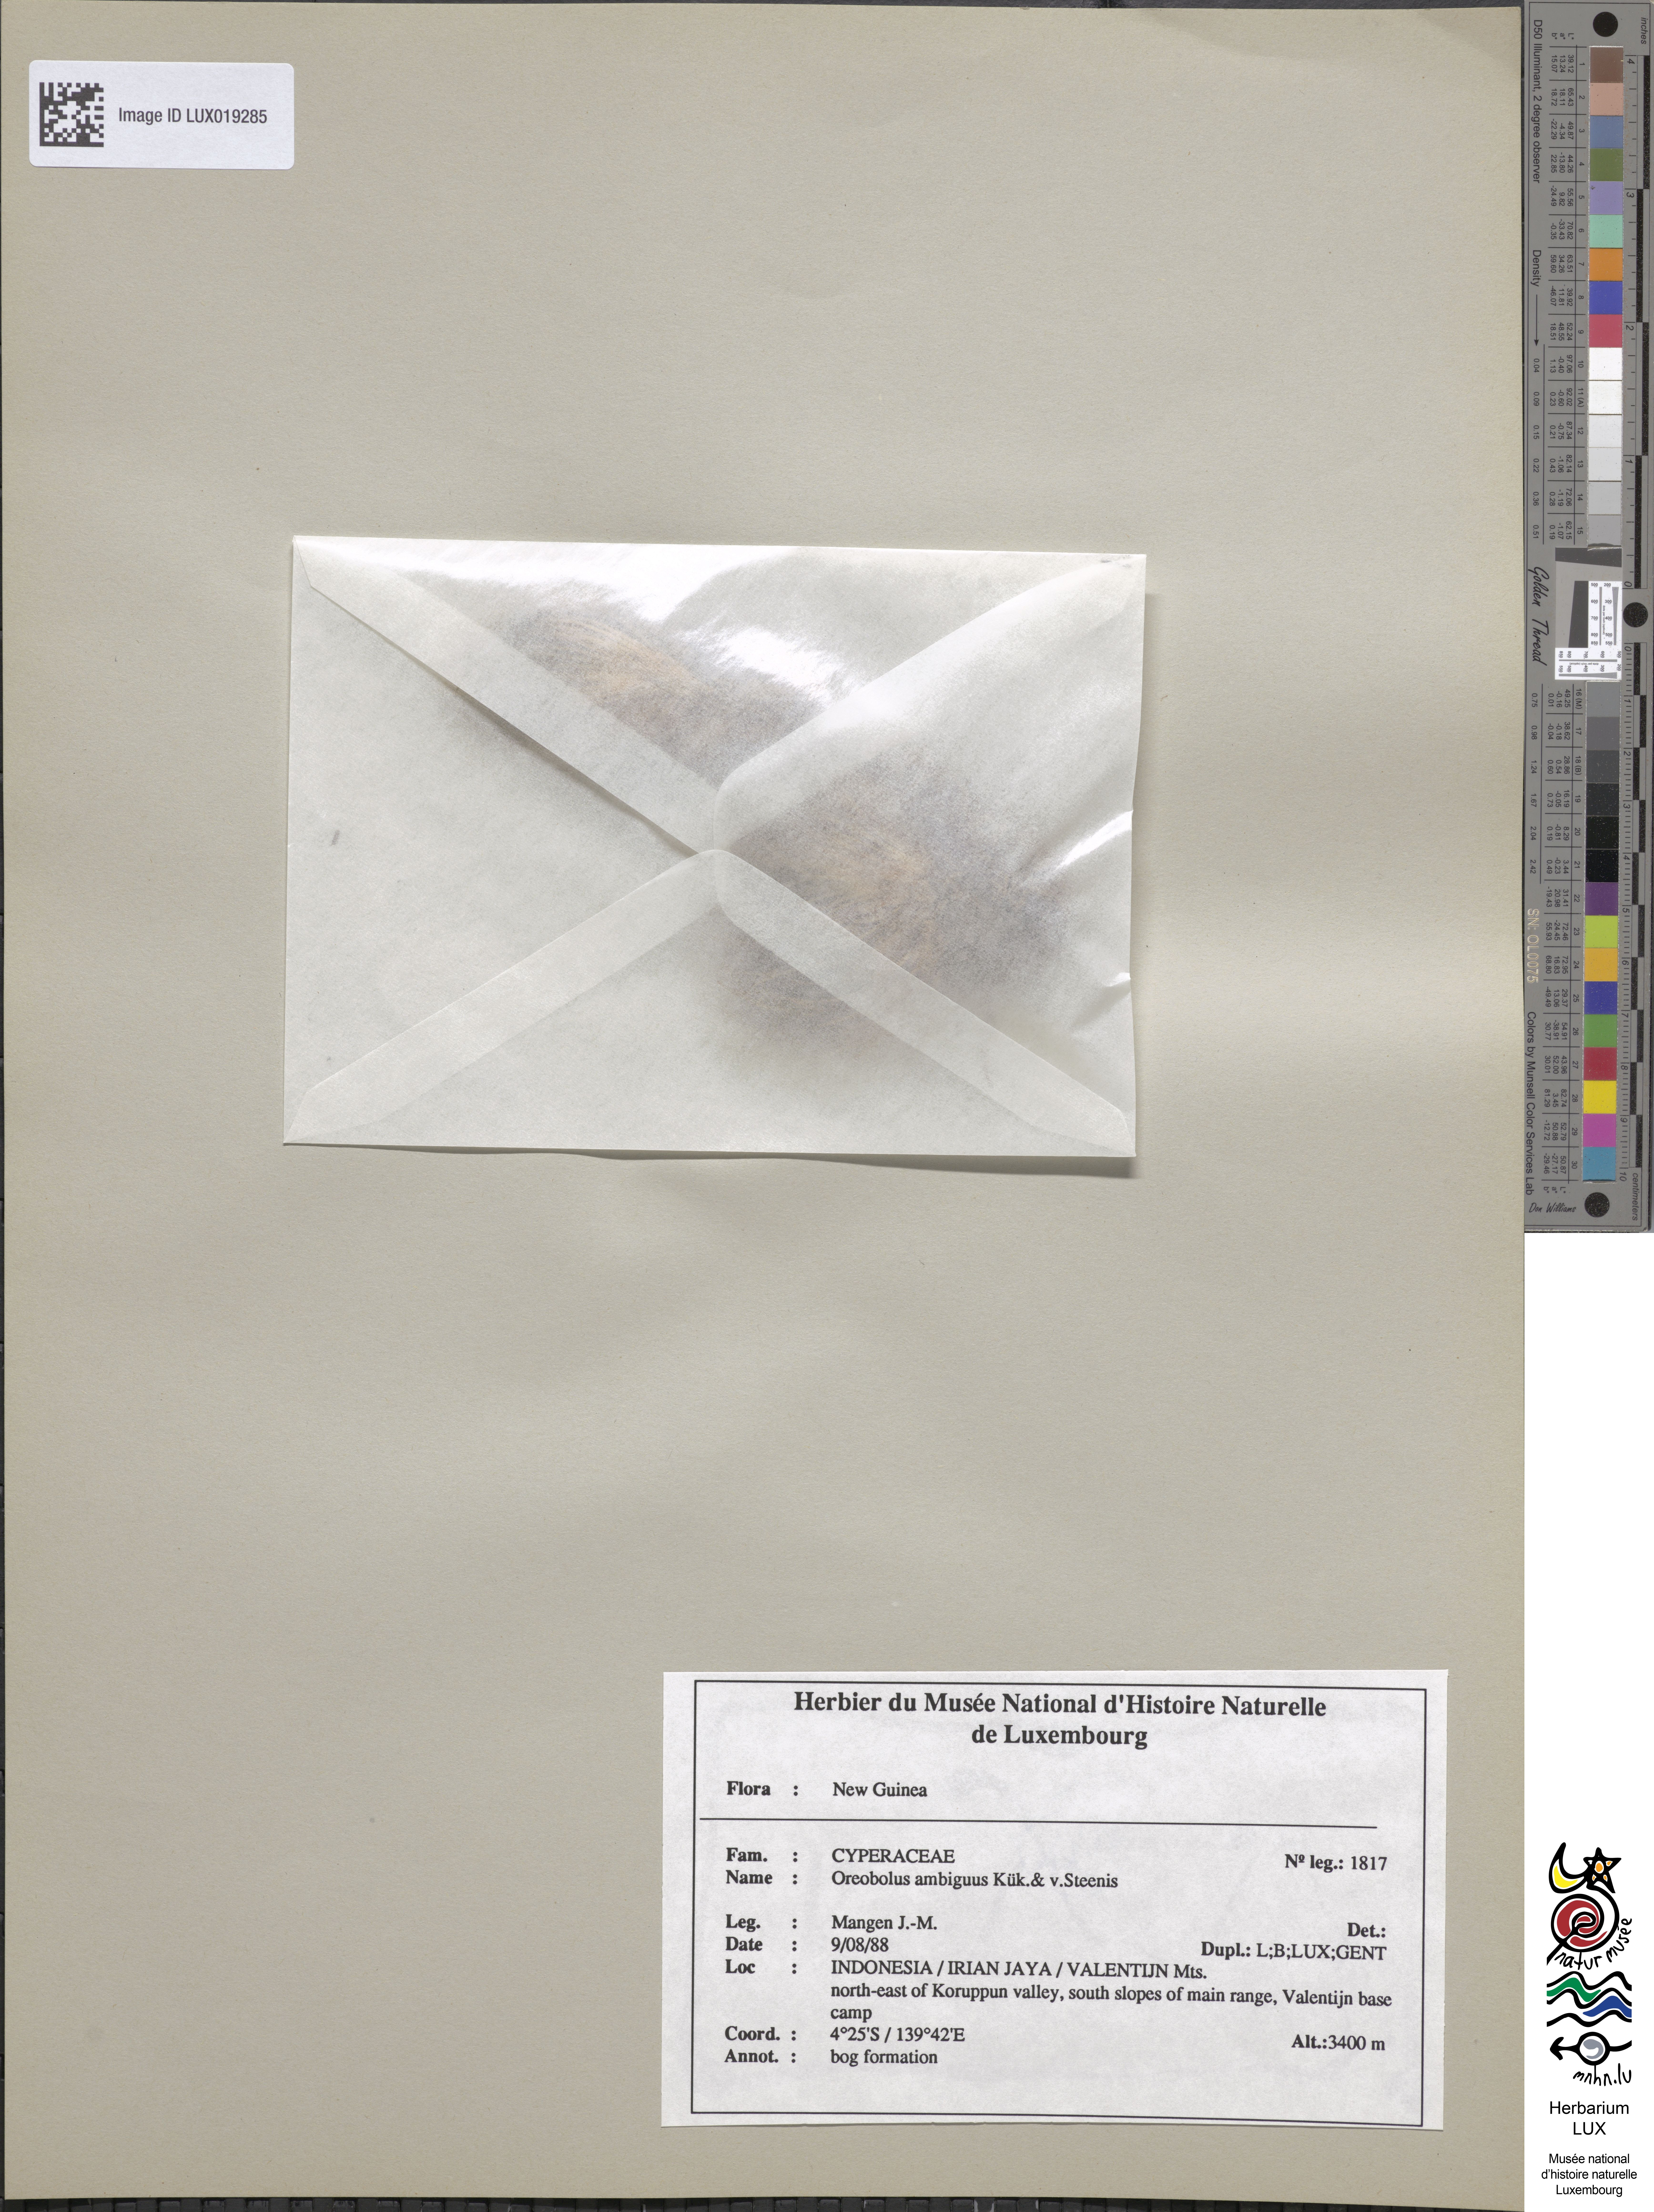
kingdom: Plantae
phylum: Tracheophyta
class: Liliopsida
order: Poales
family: Cyperaceae
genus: Oreobolus
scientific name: Oreobolus ambiguus
